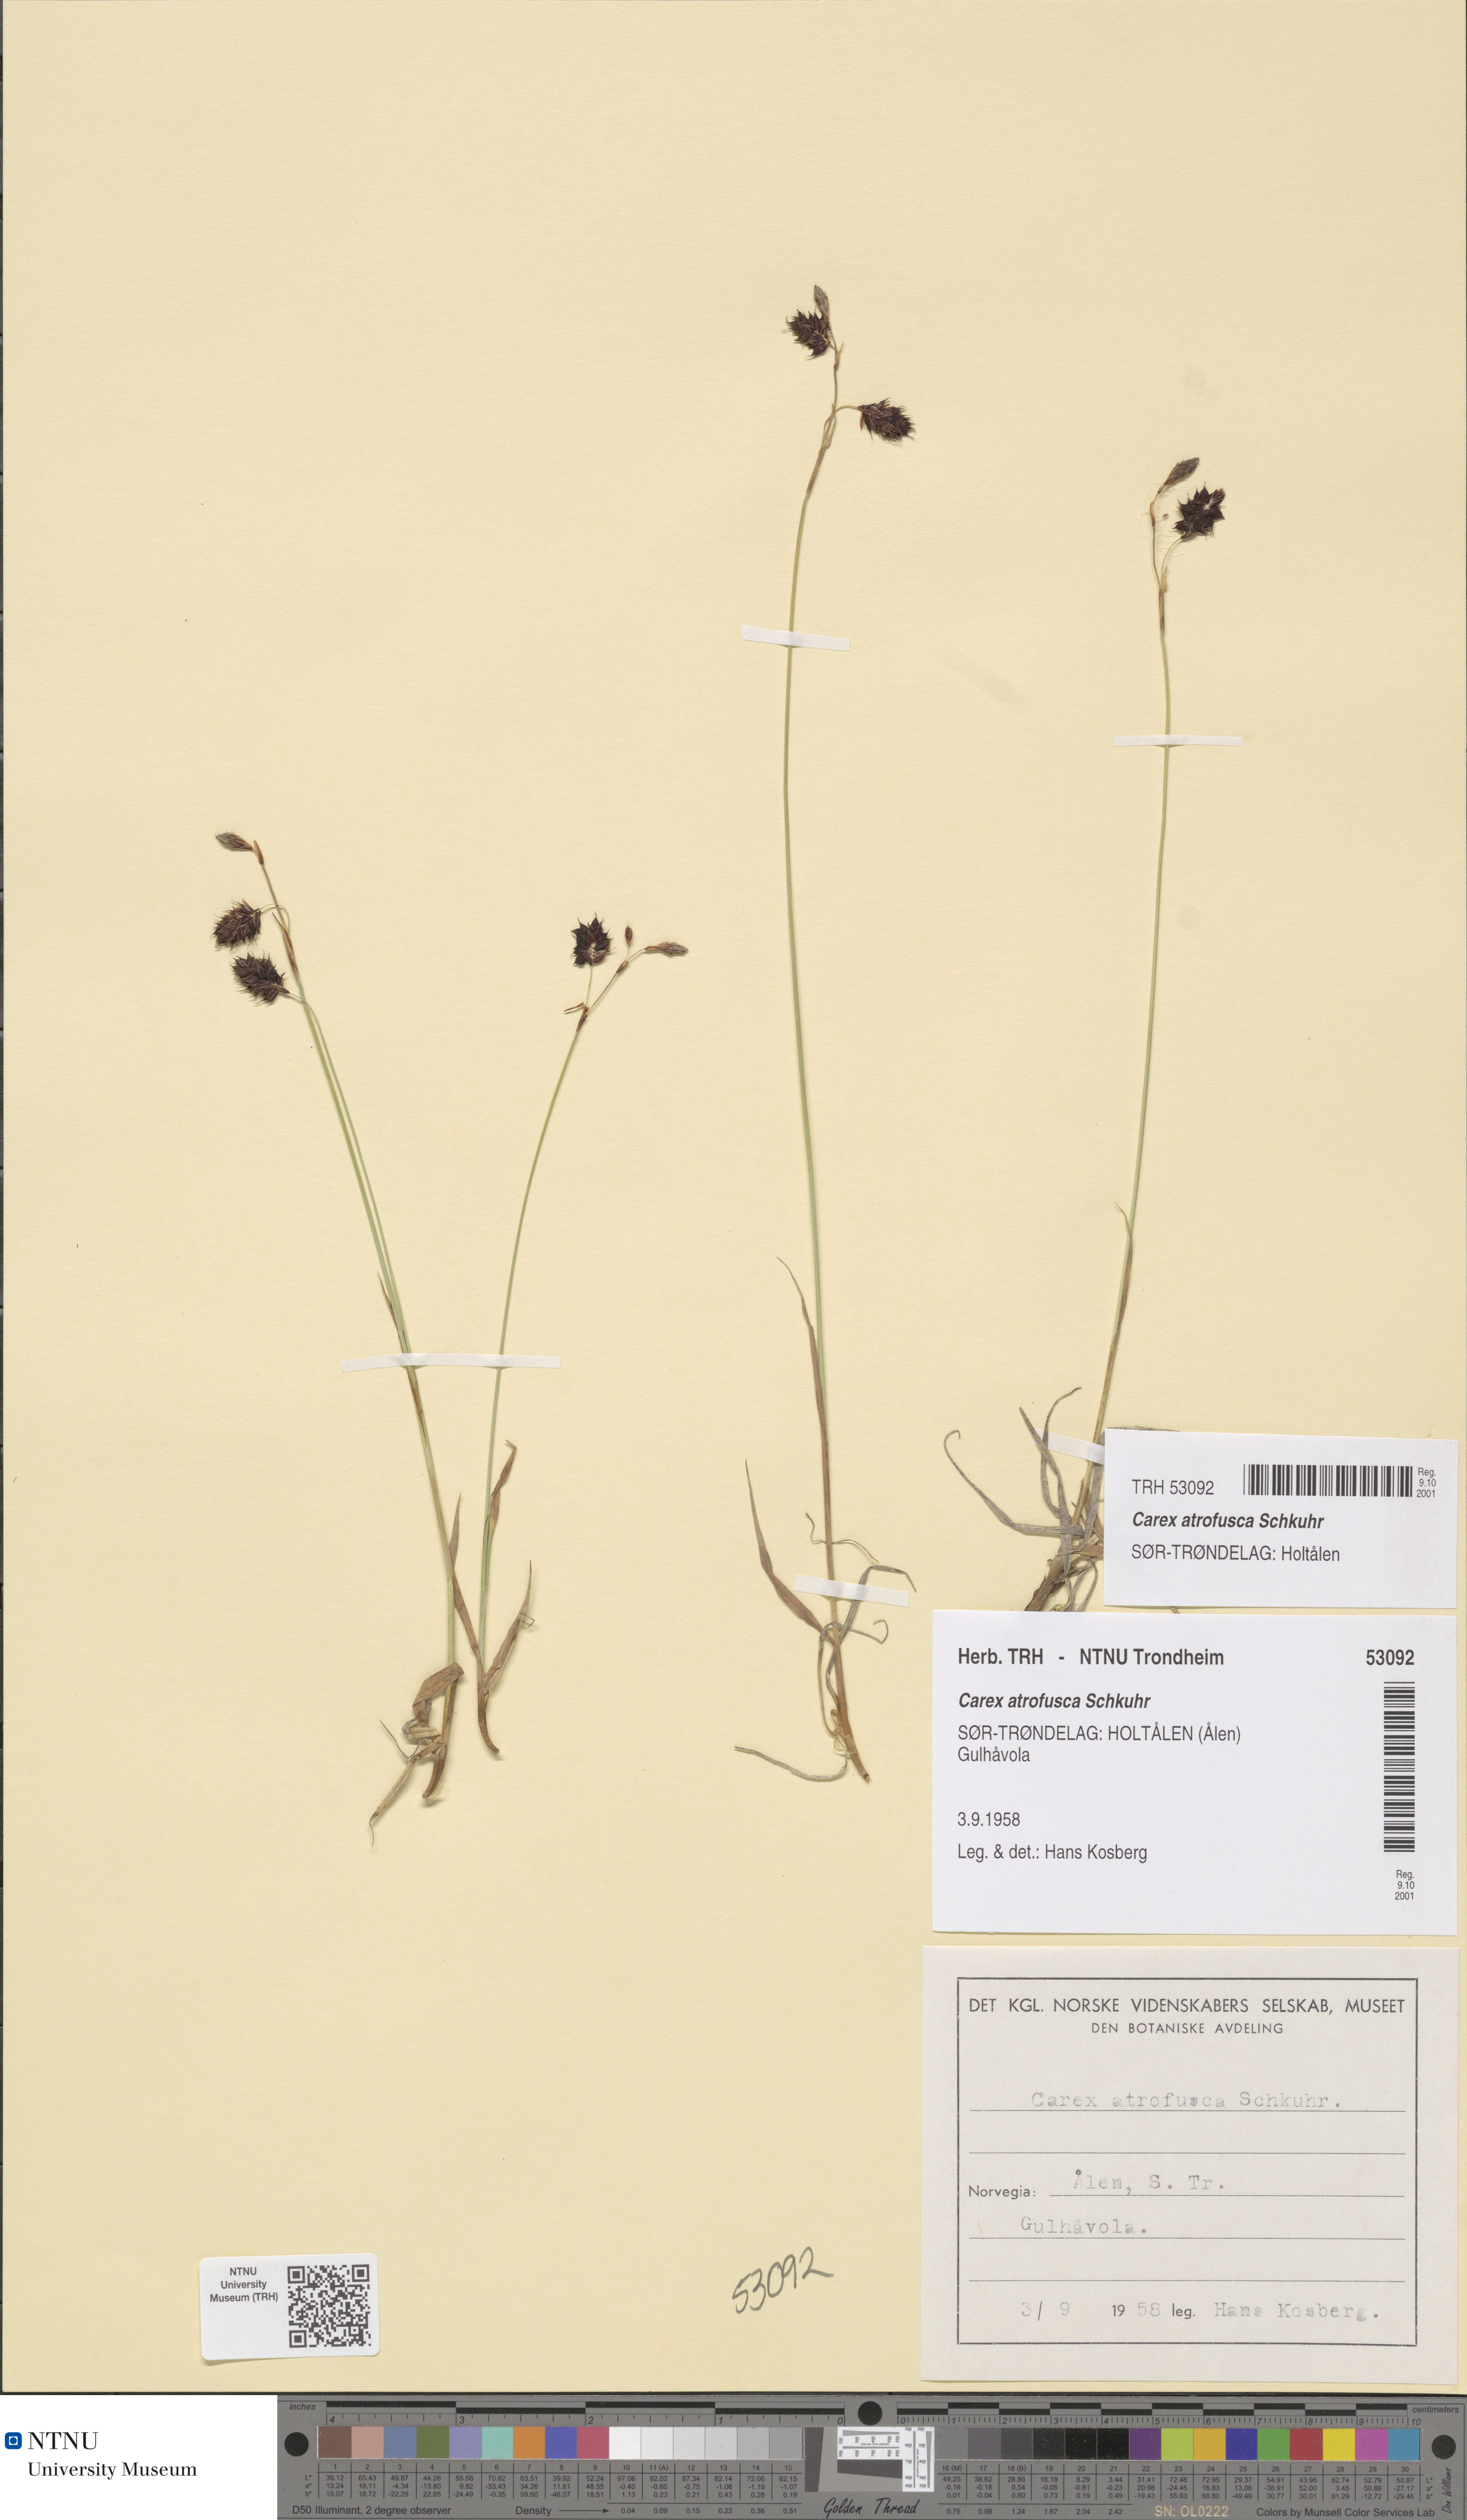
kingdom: Plantae
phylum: Tracheophyta
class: Liliopsida
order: Poales
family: Cyperaceae
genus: Carex
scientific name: Carex atrofusca
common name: Scorched alpine-sedge
